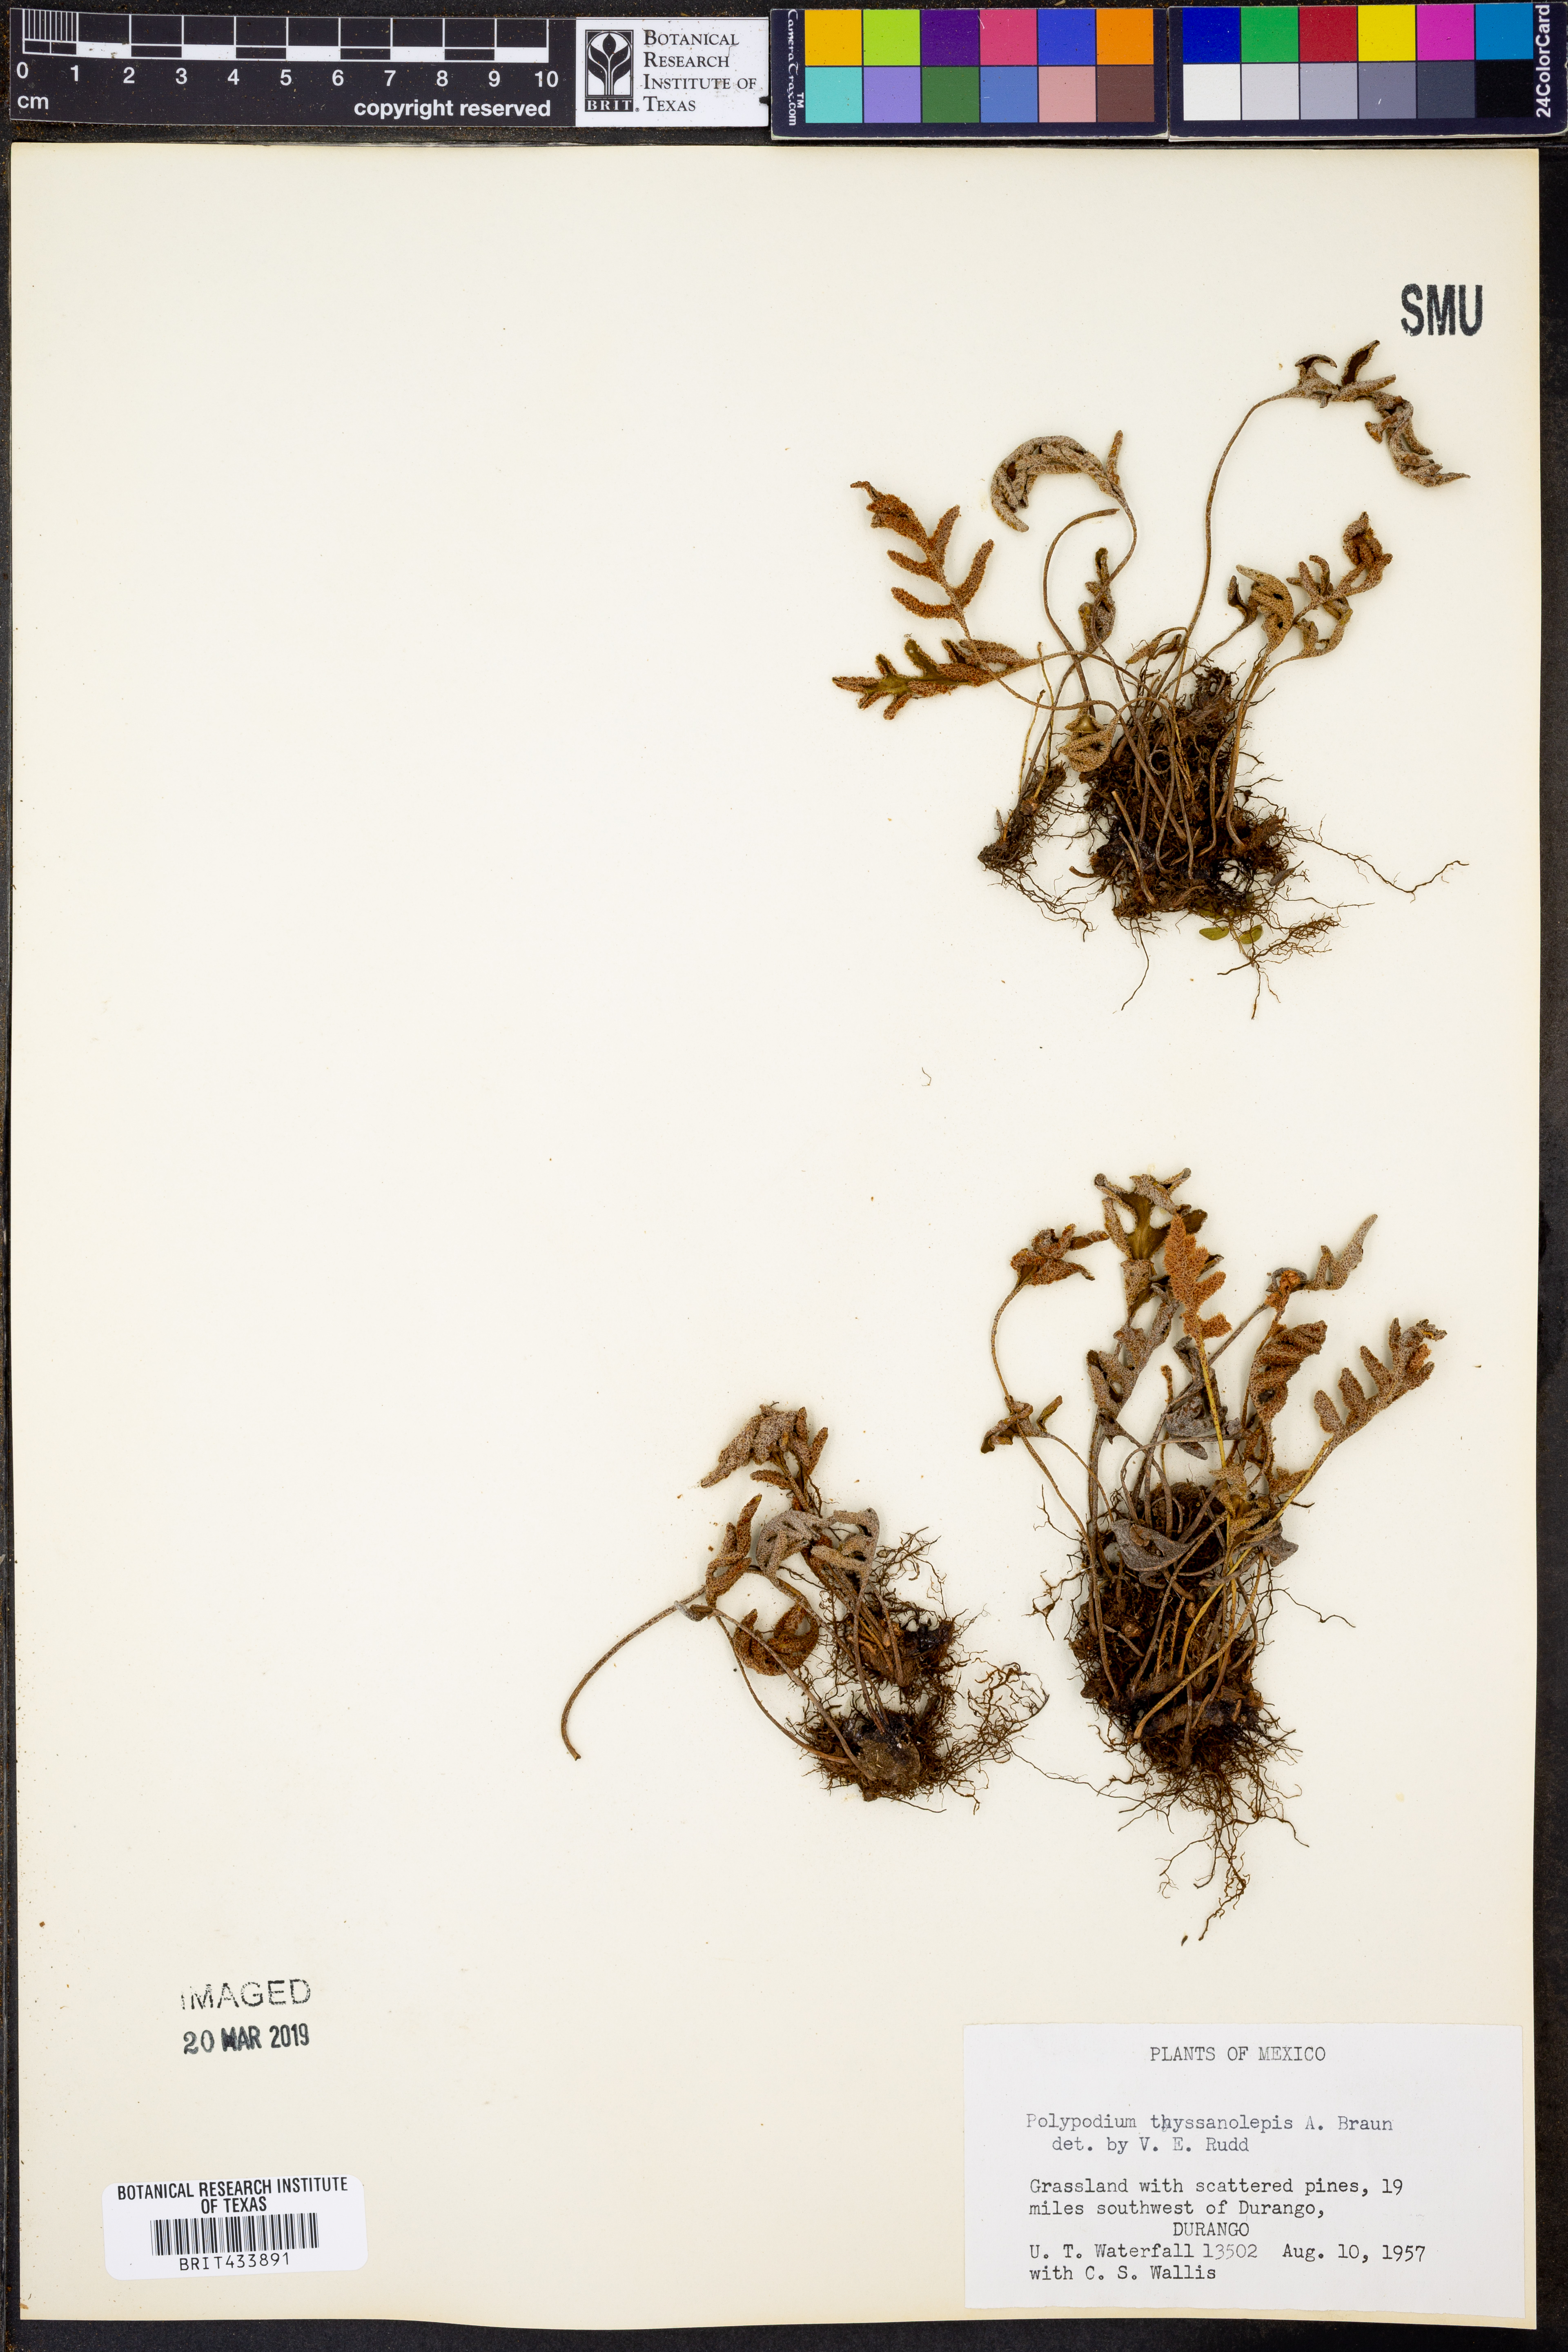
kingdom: Plantae
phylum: Tracheophyta
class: Polypodiopsida
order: Polypodiales
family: Polypodiaceae
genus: Pleopeltis
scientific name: Pleopeltis thyssanolepis
